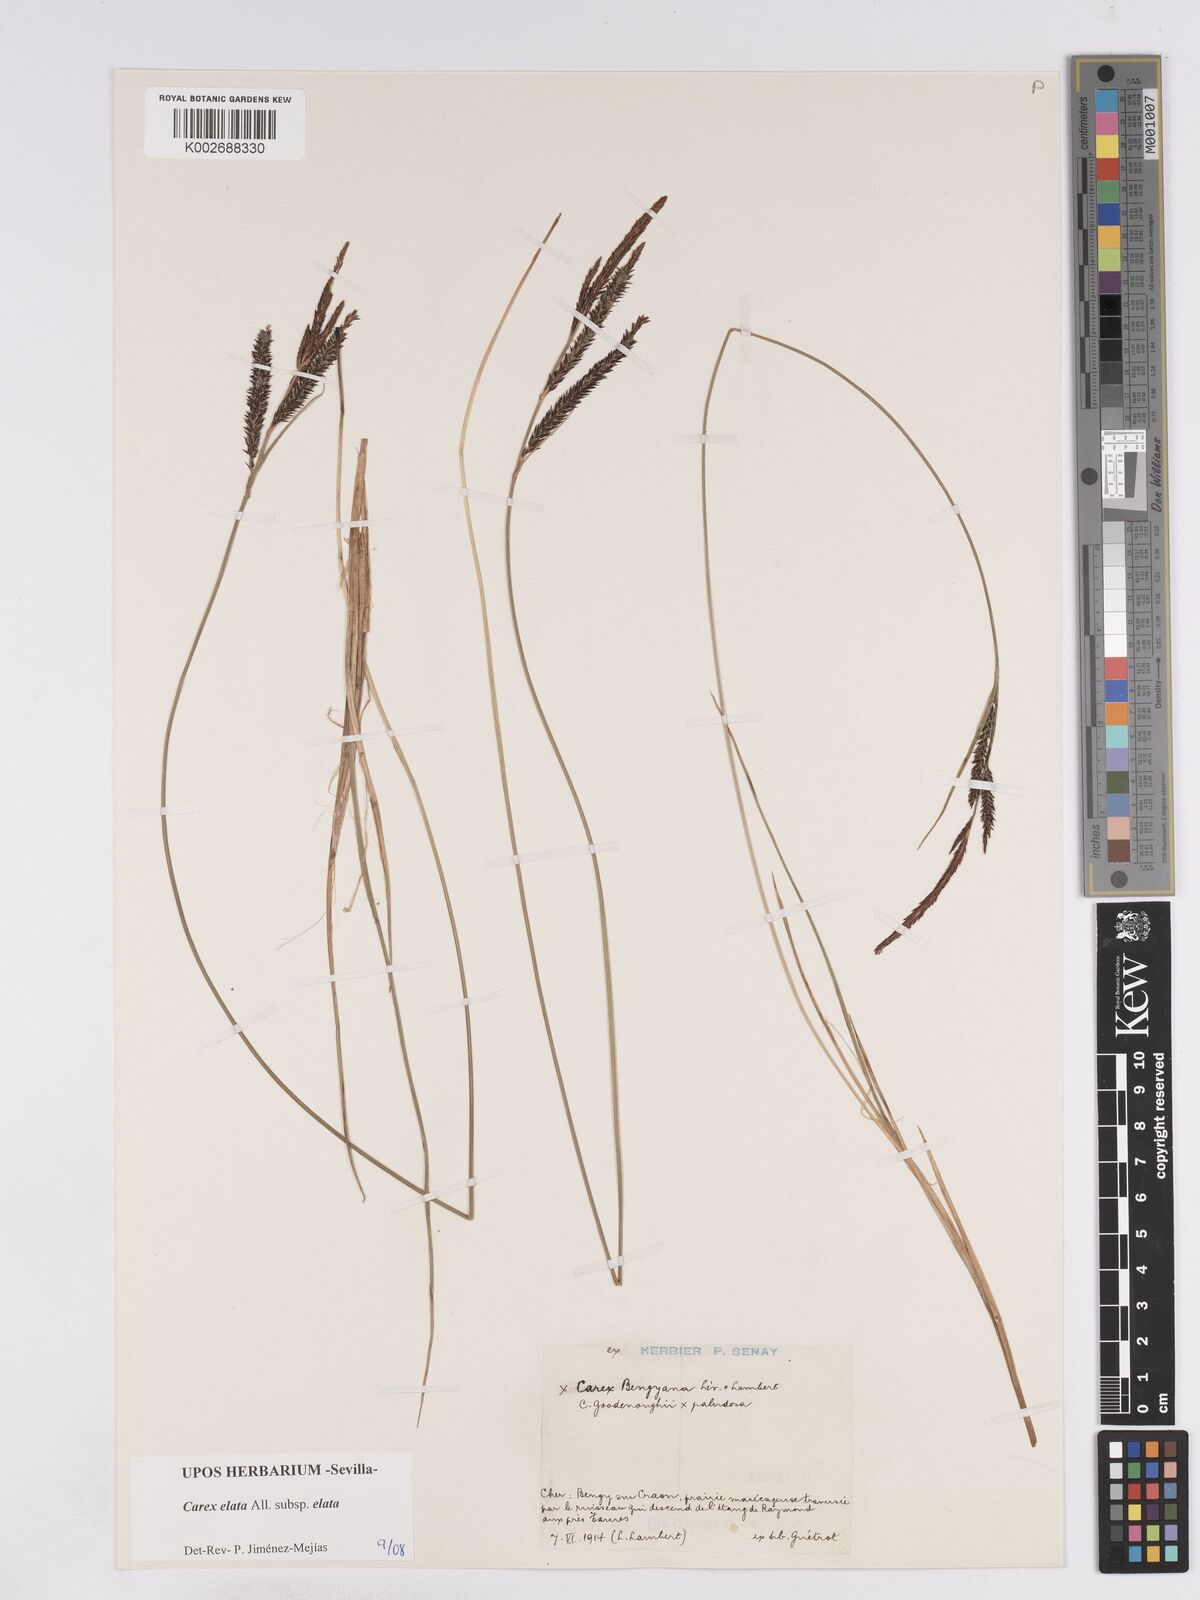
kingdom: Plantae
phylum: Tracheophyta
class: Liliopsida
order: Poales
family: Cyperaceae
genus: Carex
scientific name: Carex elata
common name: Tufted sedge
